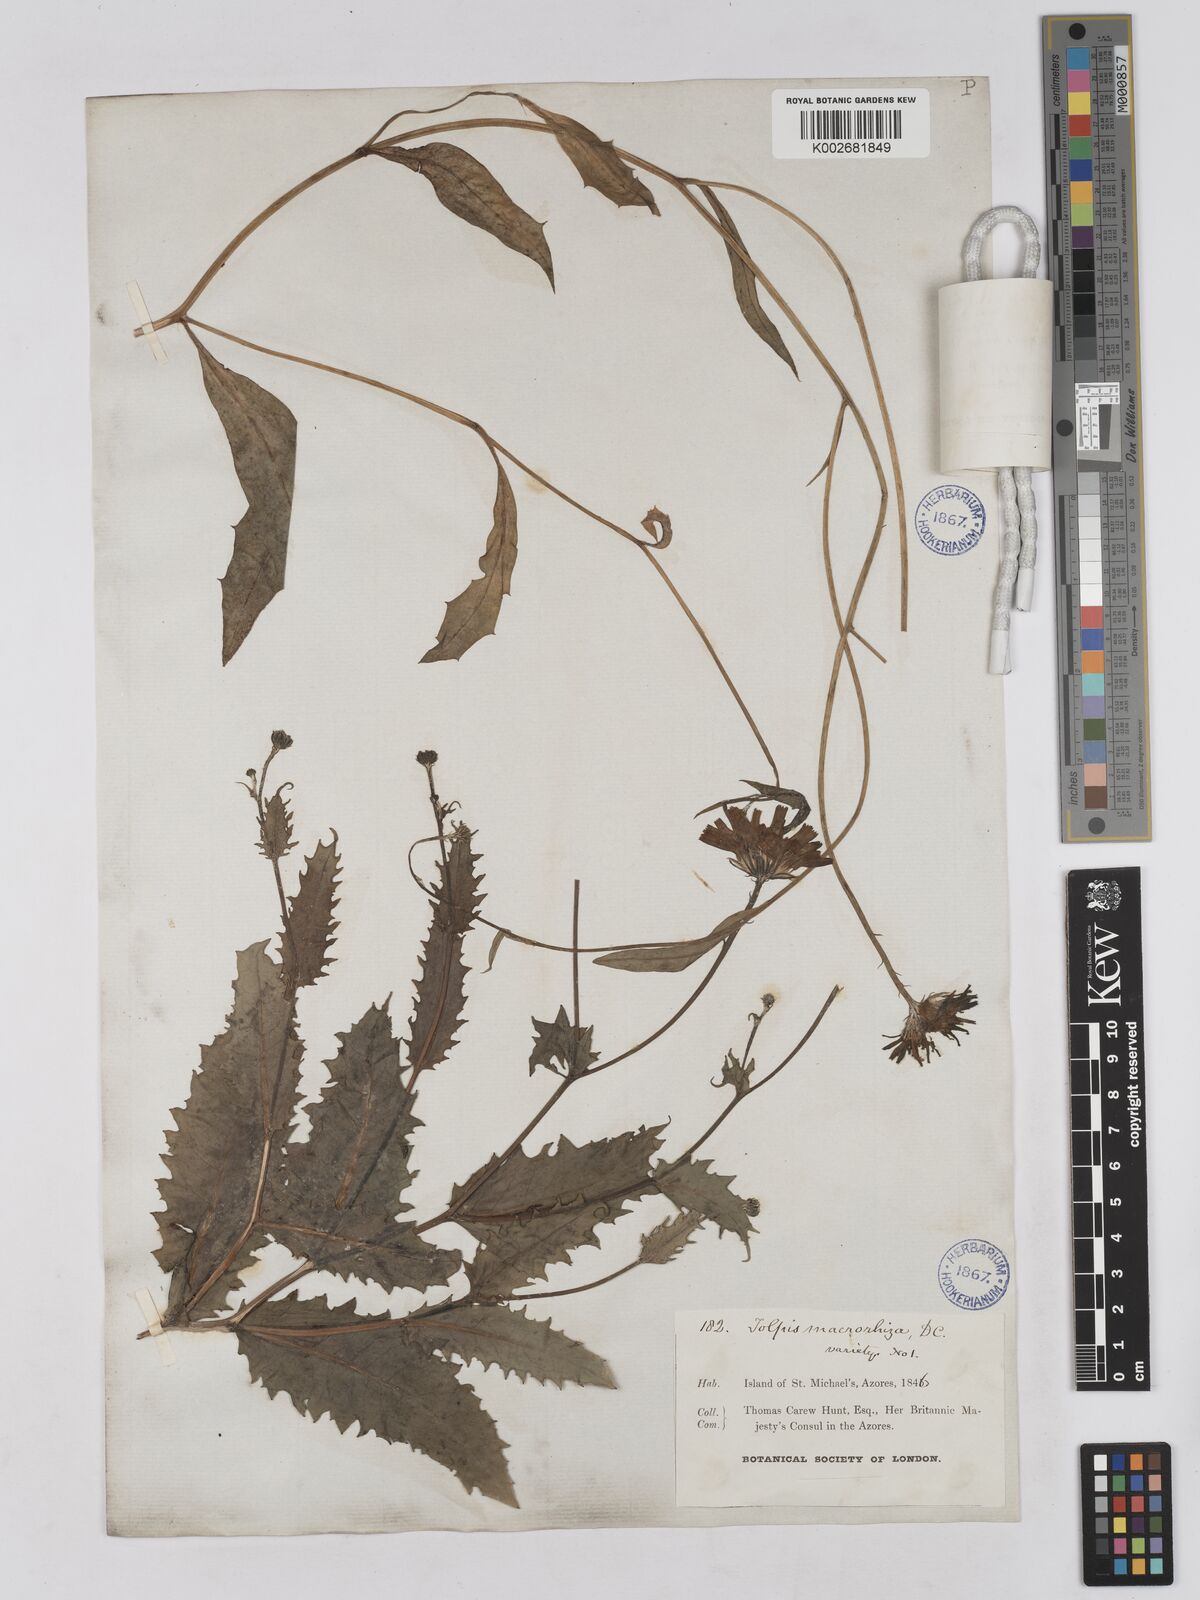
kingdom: Plantae
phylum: Tracheophyta
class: Magnoliopsida
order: Asterales
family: Asteraceae
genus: Tolpis
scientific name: Tolpis nobilis
